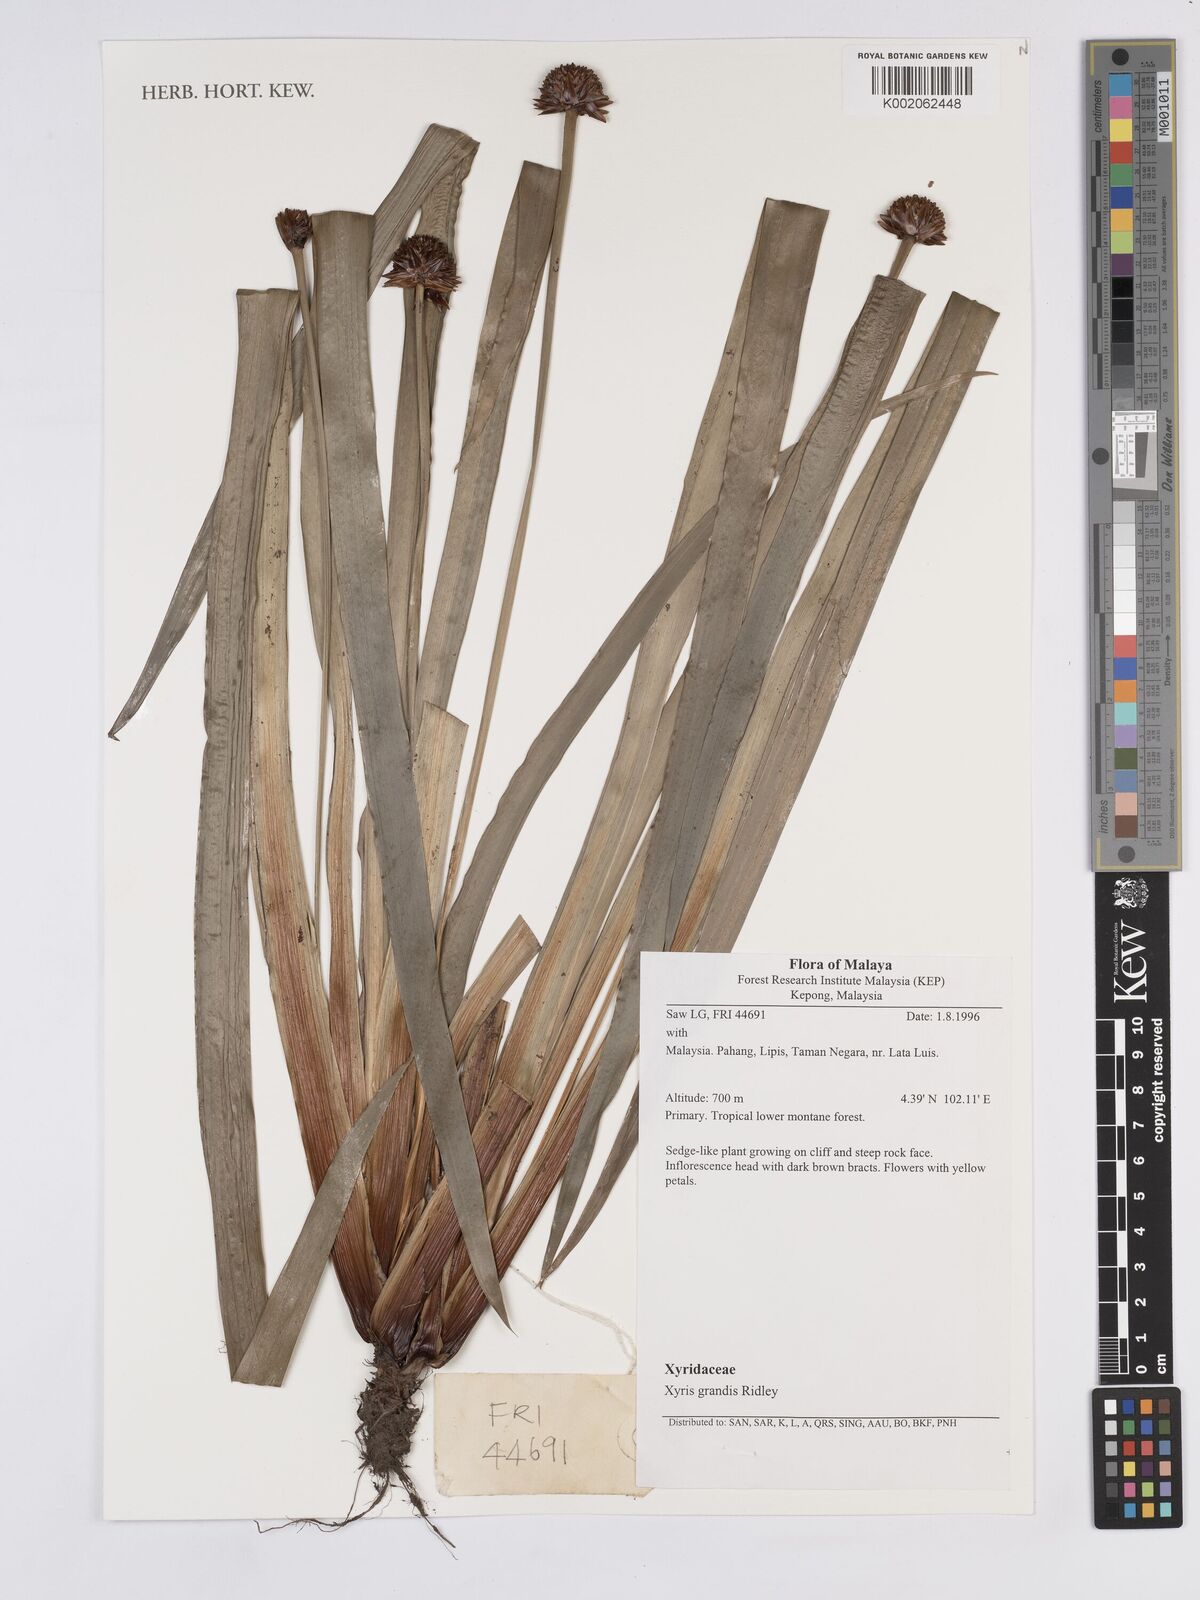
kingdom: Plantae
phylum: Tracheophyta
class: Liliopsida
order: Poales
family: Xyridaceae
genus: Xyris
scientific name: Xyris grandis
